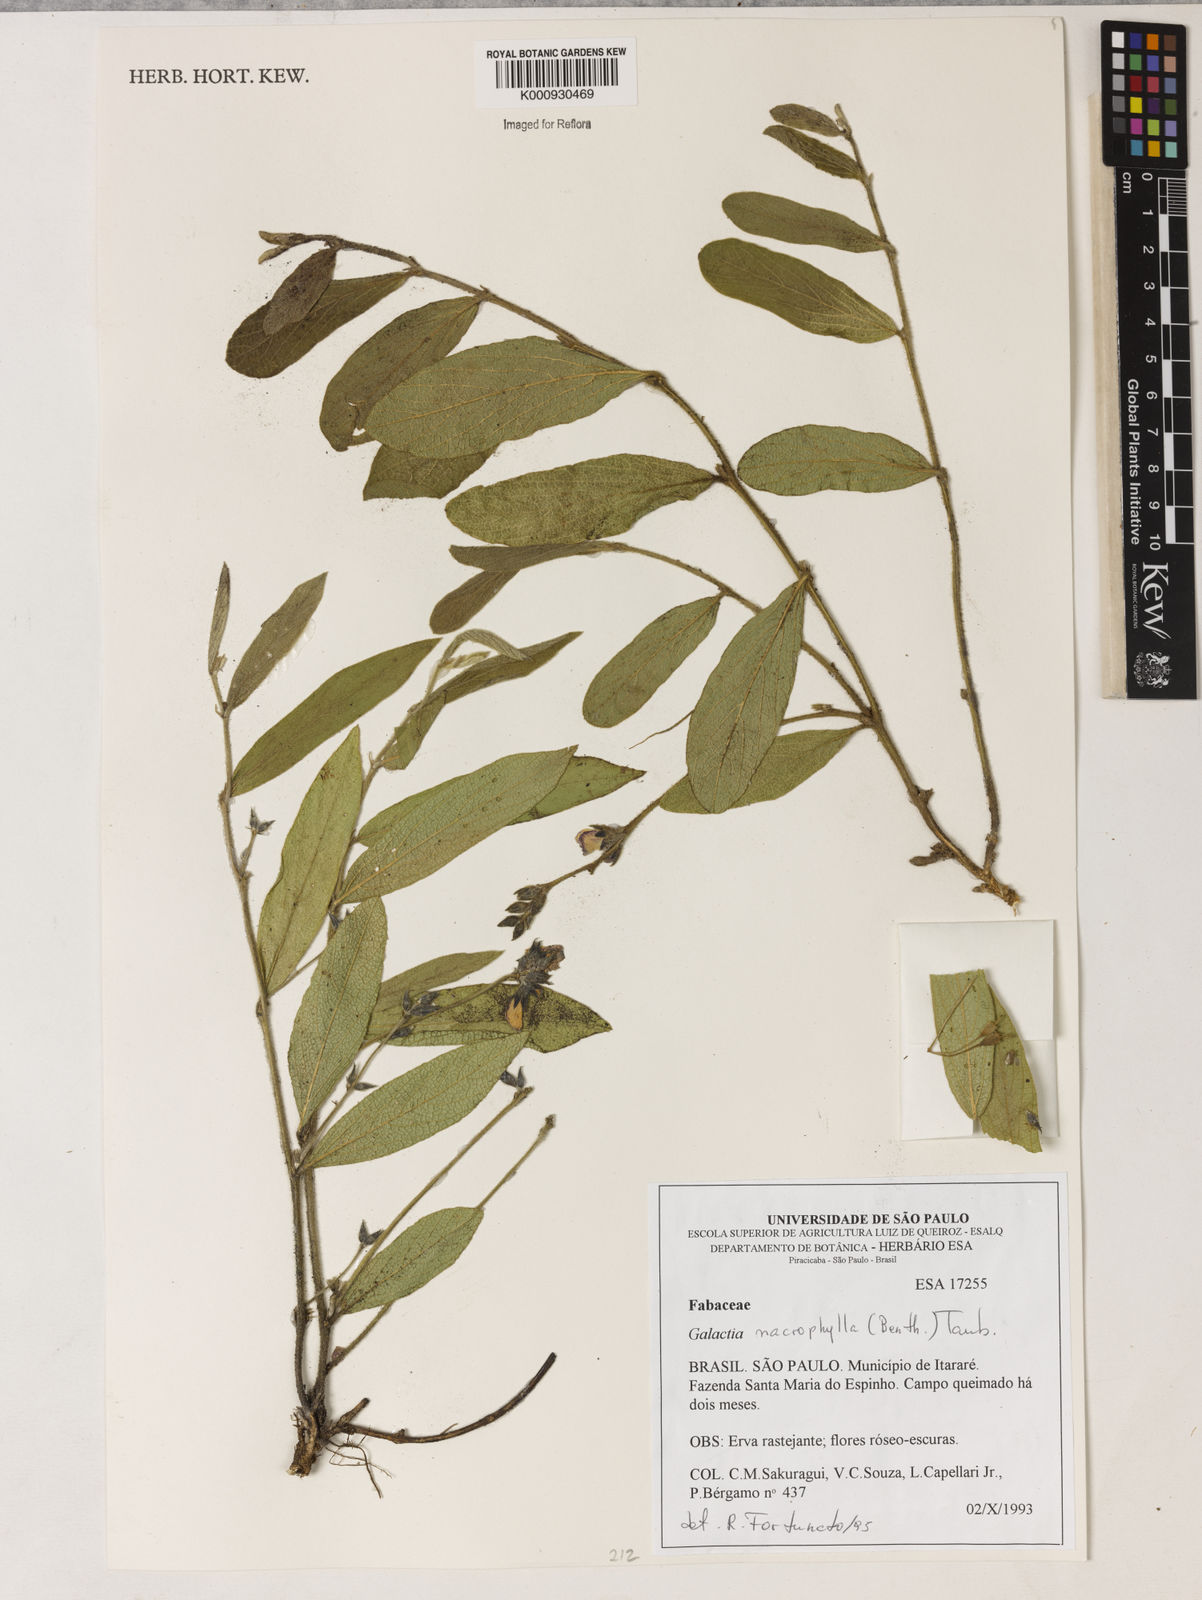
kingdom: Plantae
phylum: Tracheophyta
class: Magnoliopsida
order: Fabales
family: Fabaceae
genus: Cerradicola
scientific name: Cerradicola boavista
